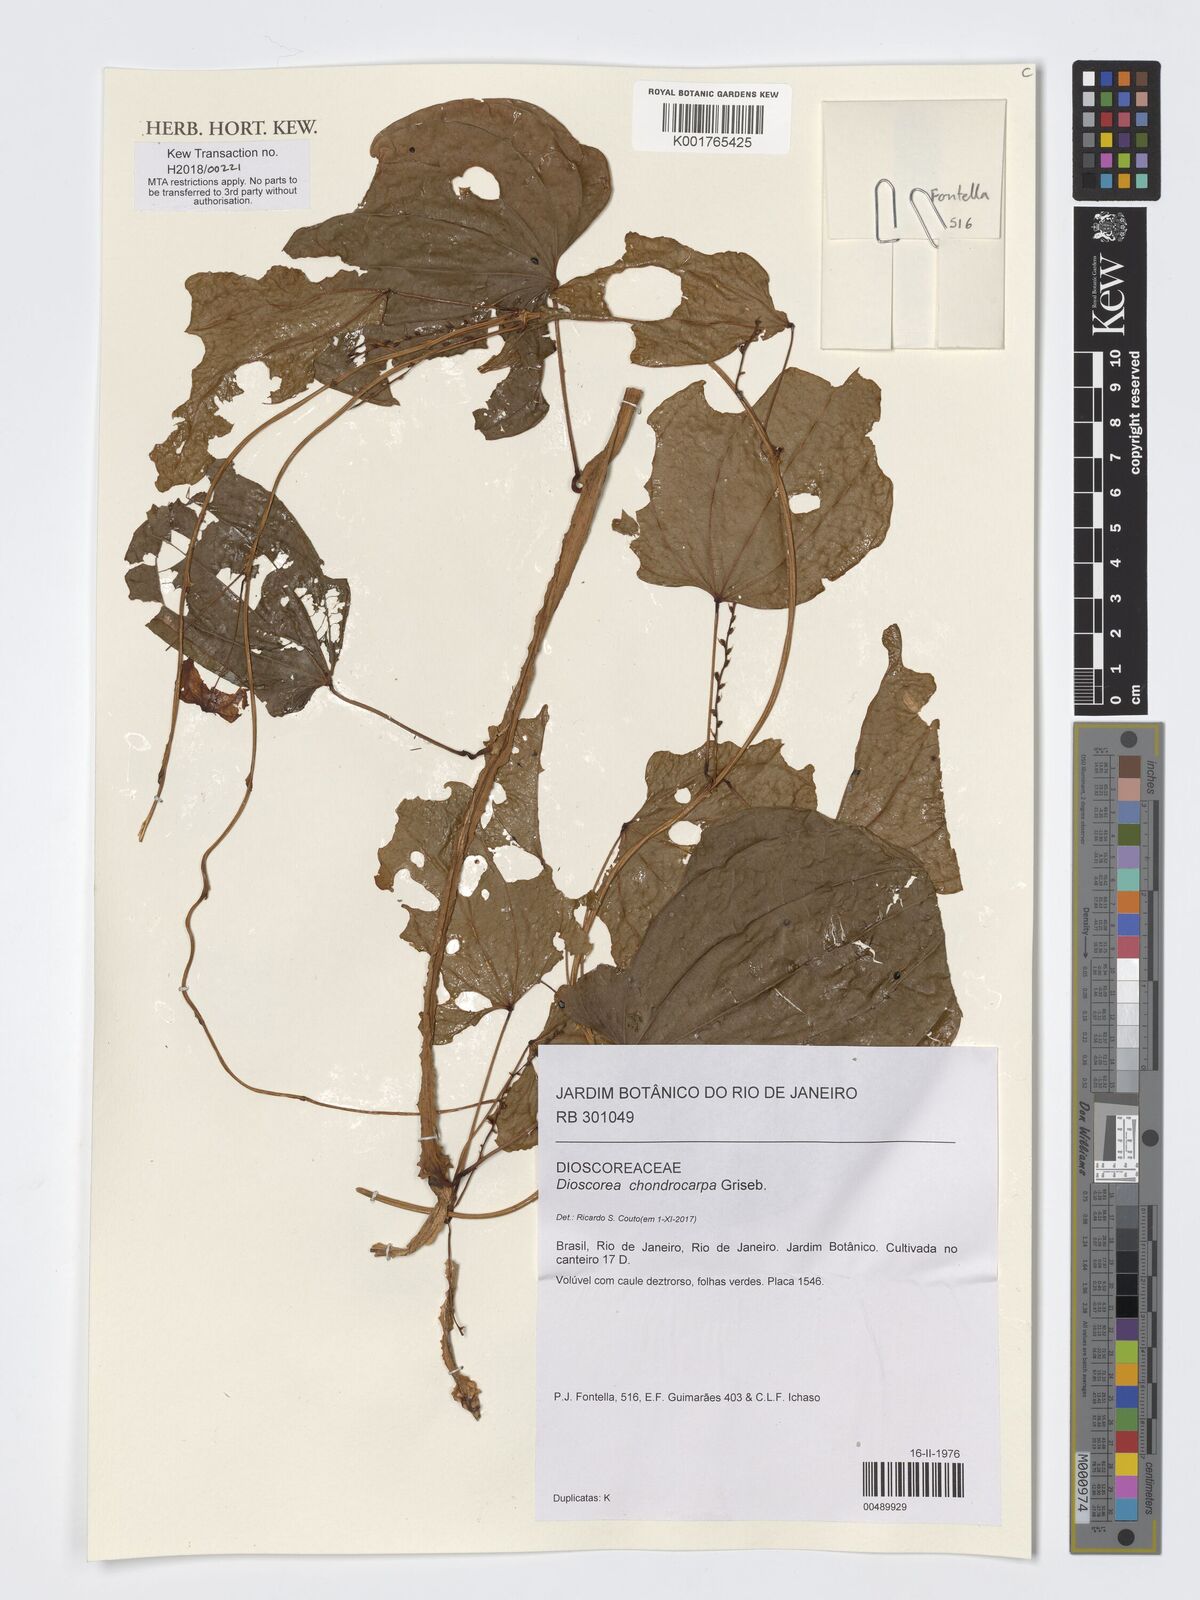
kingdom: Plantae
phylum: Tracheophyta
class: Liliopsida
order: Dioscoreales
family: Dioscoreaceae
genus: Dioscorea
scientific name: Dioscorea chondrocarpa
